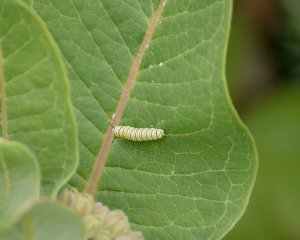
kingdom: Animalia
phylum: Arthropoda
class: Insecta
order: Lepidoptera
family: Nymphalidae
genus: Danaus
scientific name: Danaus plexippus
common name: Monarch
